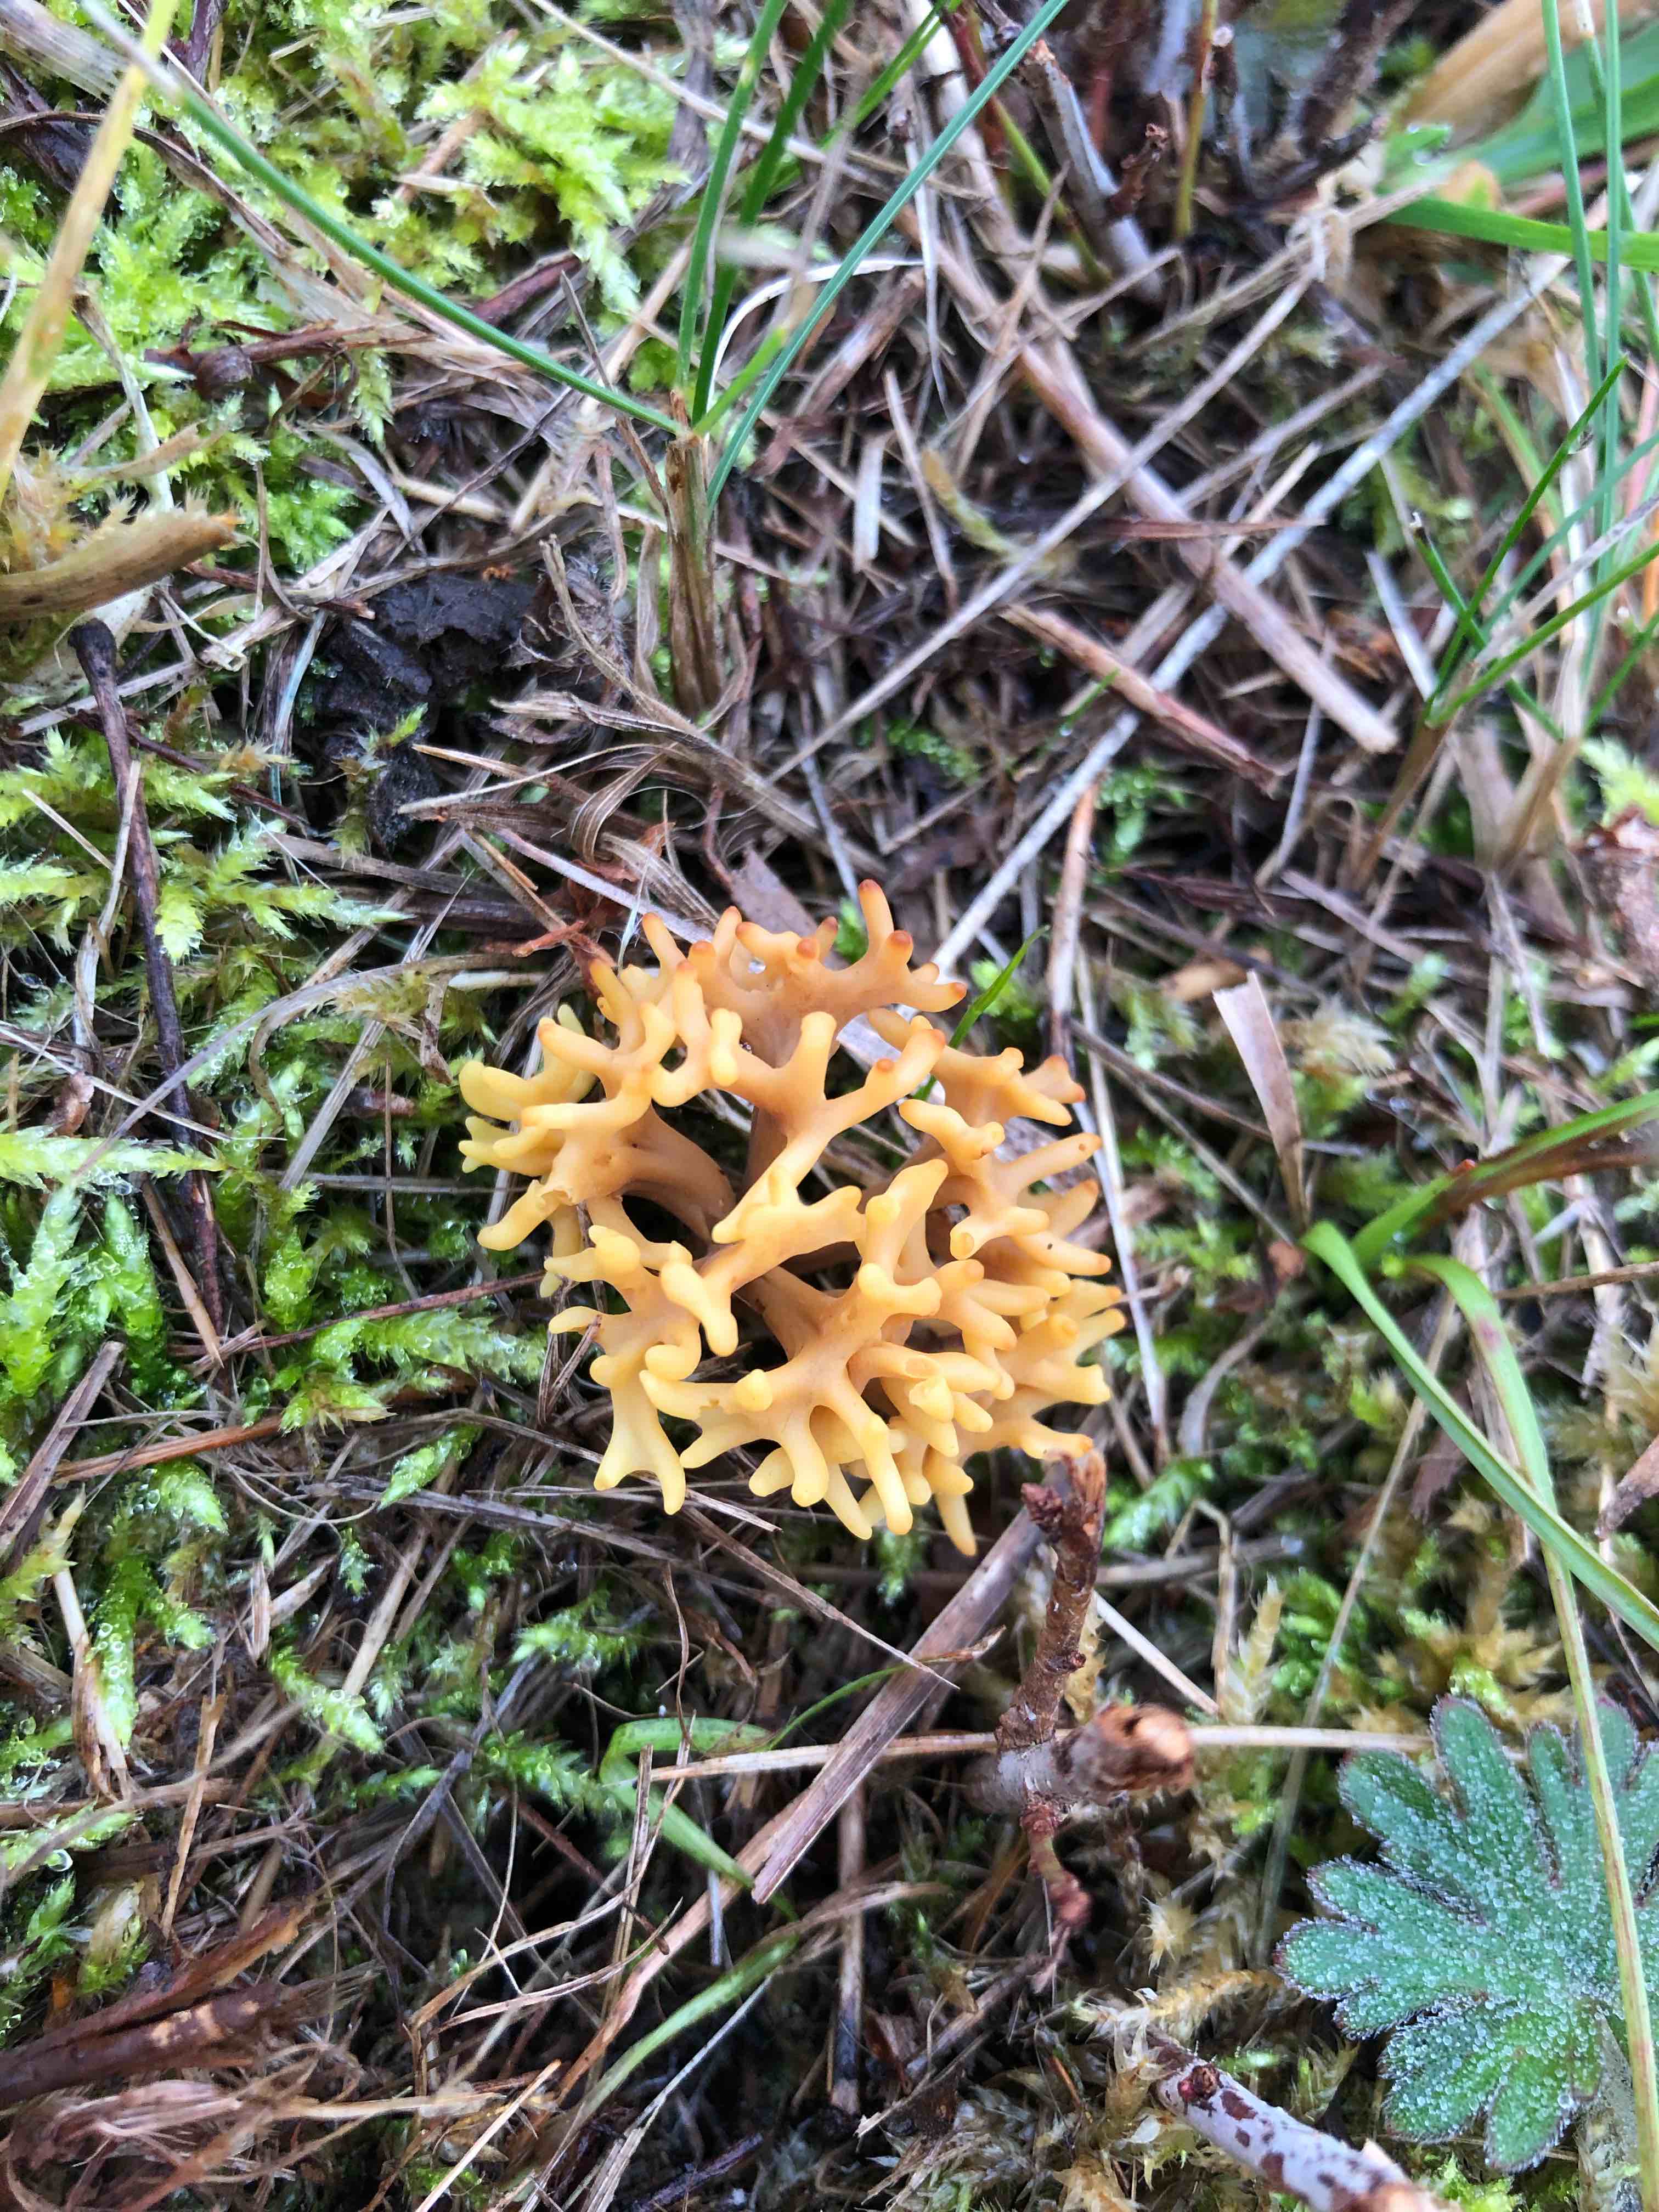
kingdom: Fungi
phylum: Basidiomycota
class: Agaricomycetes
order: Agaricales
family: Clavariaceae
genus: Clavulinopsis
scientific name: Clavulinopsis corniculata
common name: eng-køllesvamp
